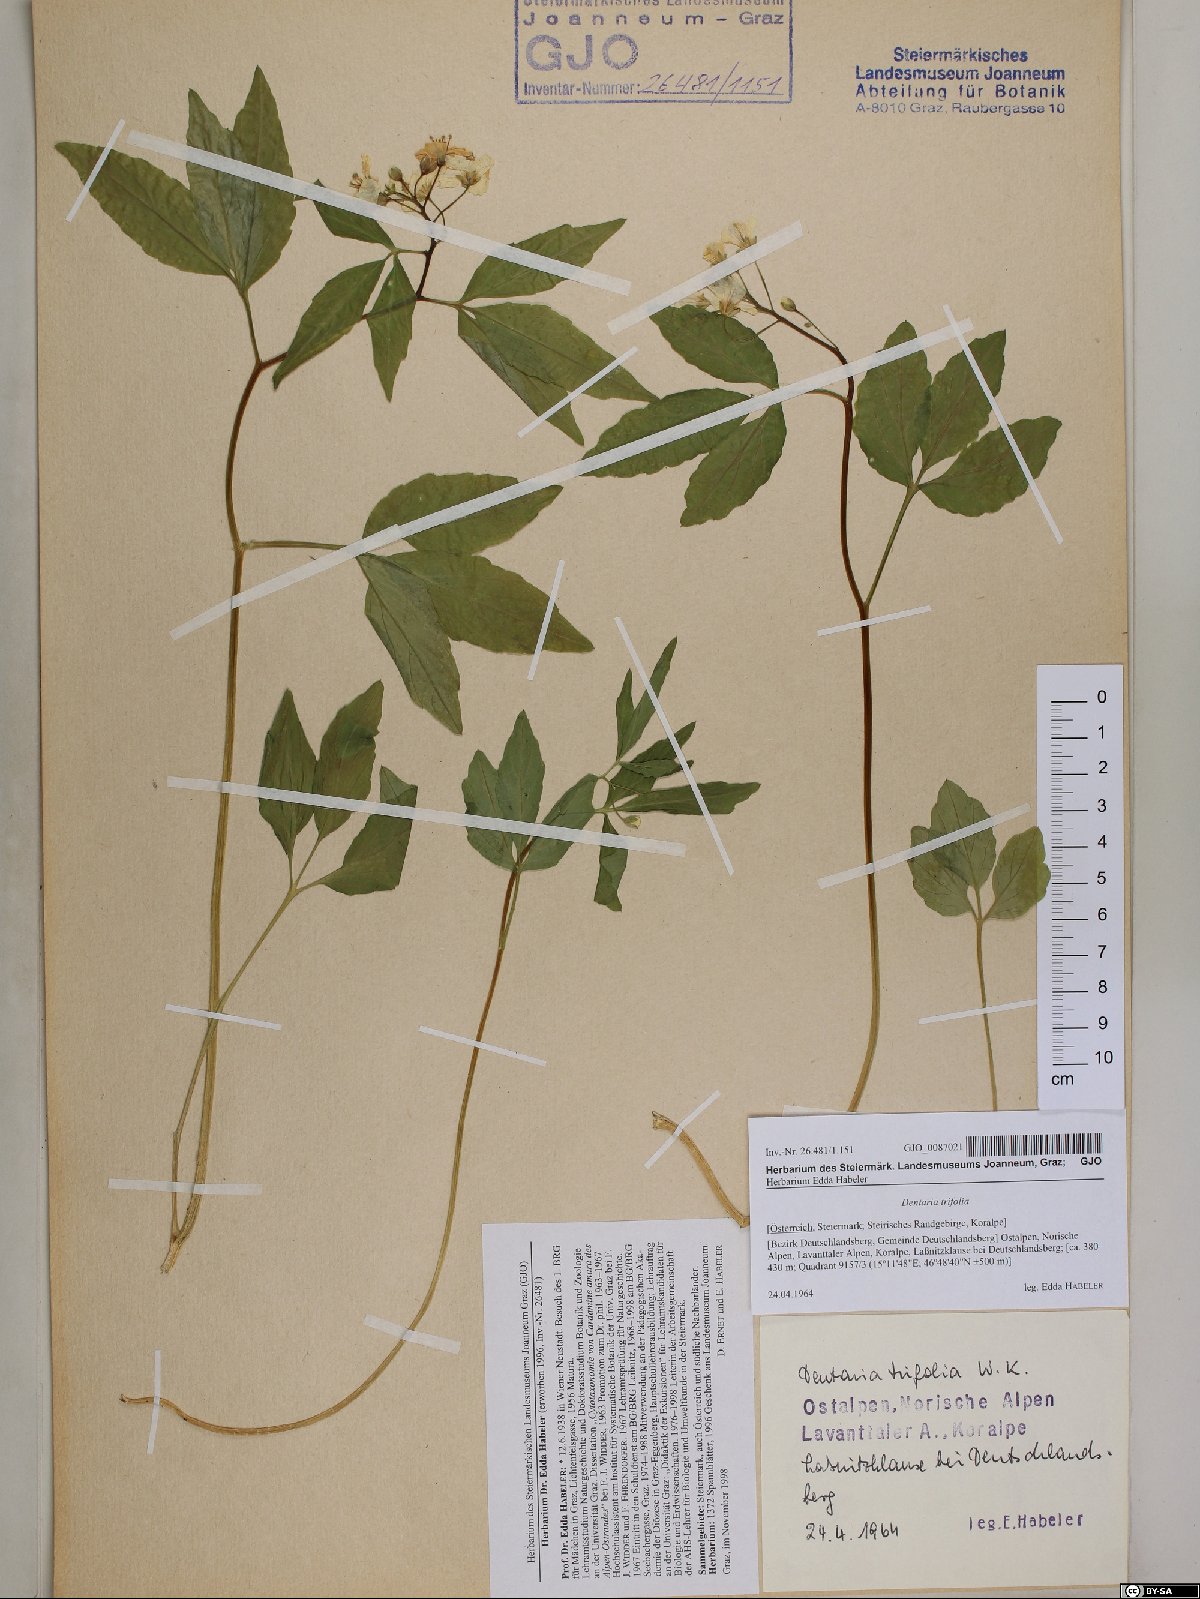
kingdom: Plantae
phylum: Tracheophyta
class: Magnoliopsida
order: Brassicales
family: Brassicaceae
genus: Cardamine
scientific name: Cardamine waldsteinii
